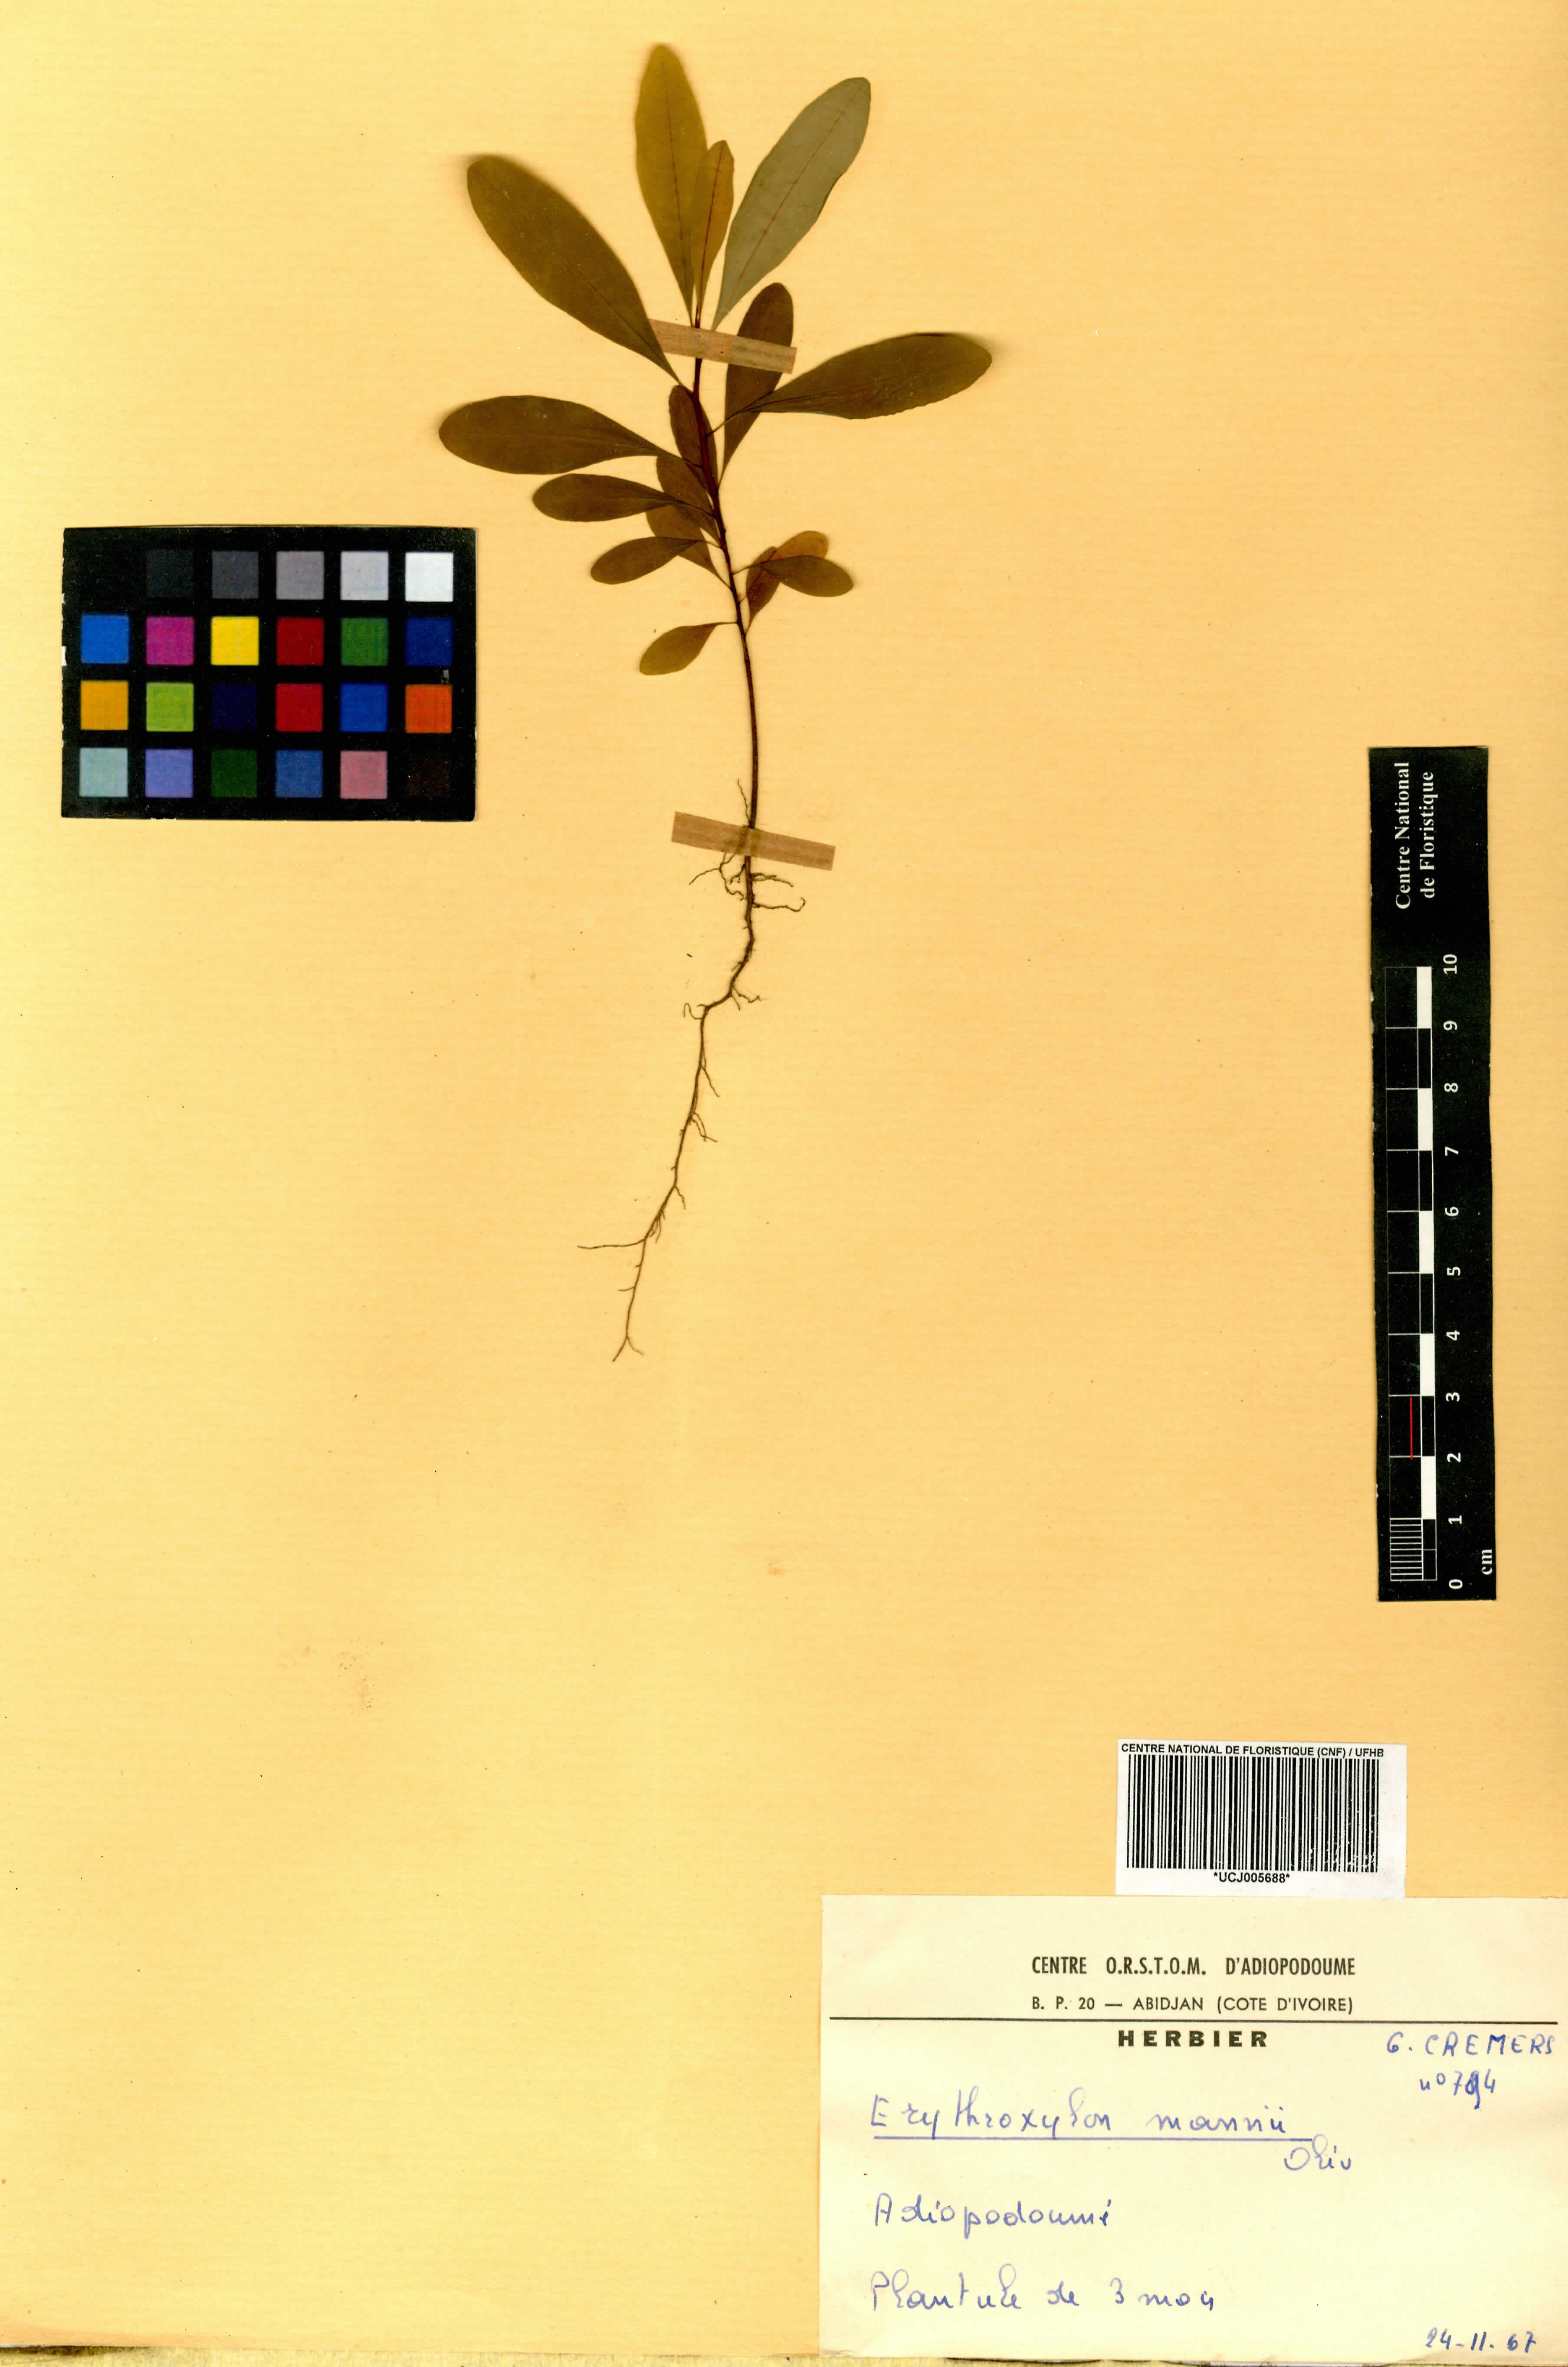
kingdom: Plantae
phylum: Tracheophyta
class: Magnoliopsida
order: Malpighiales
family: Erythroxylaceae
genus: Erythroxylum
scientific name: Erythroxylum mannii
